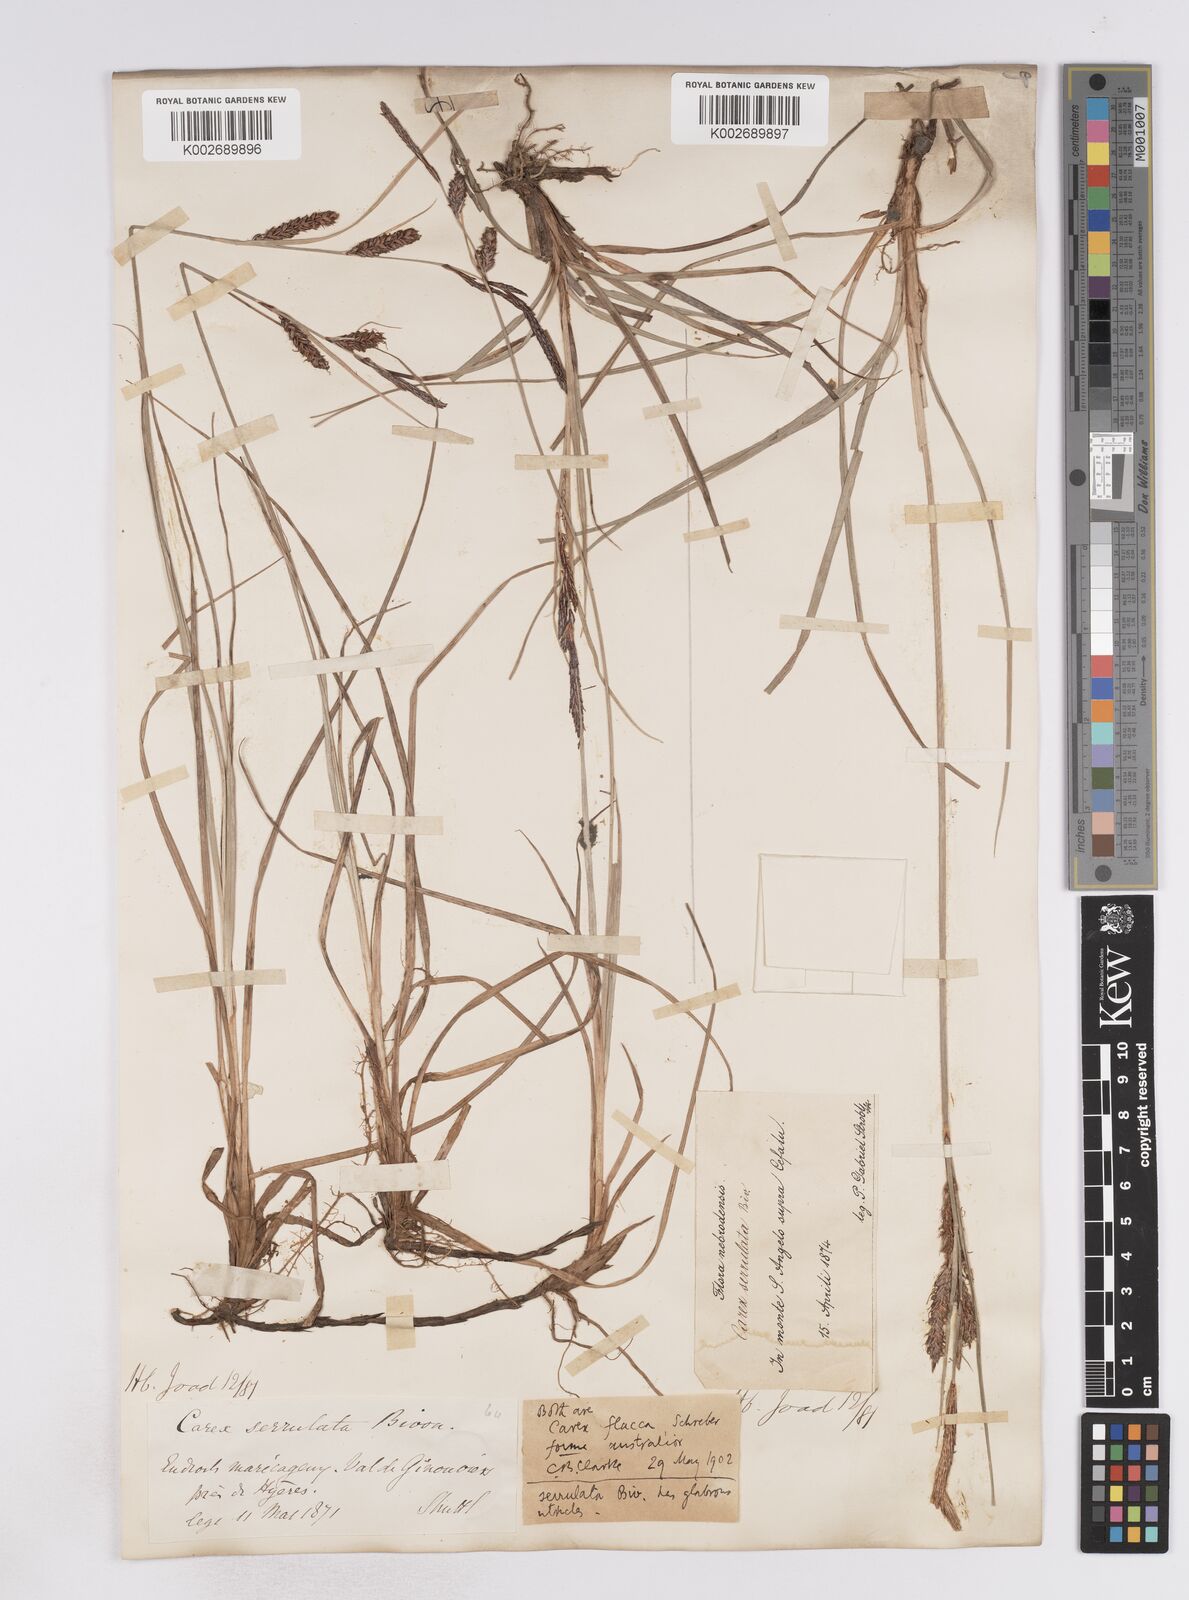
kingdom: Plantae
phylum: Tracheophyta
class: Liliopsida
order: Poales
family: Cyperaceae
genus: Carex
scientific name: Carex flacca
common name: Glaucous sedge
